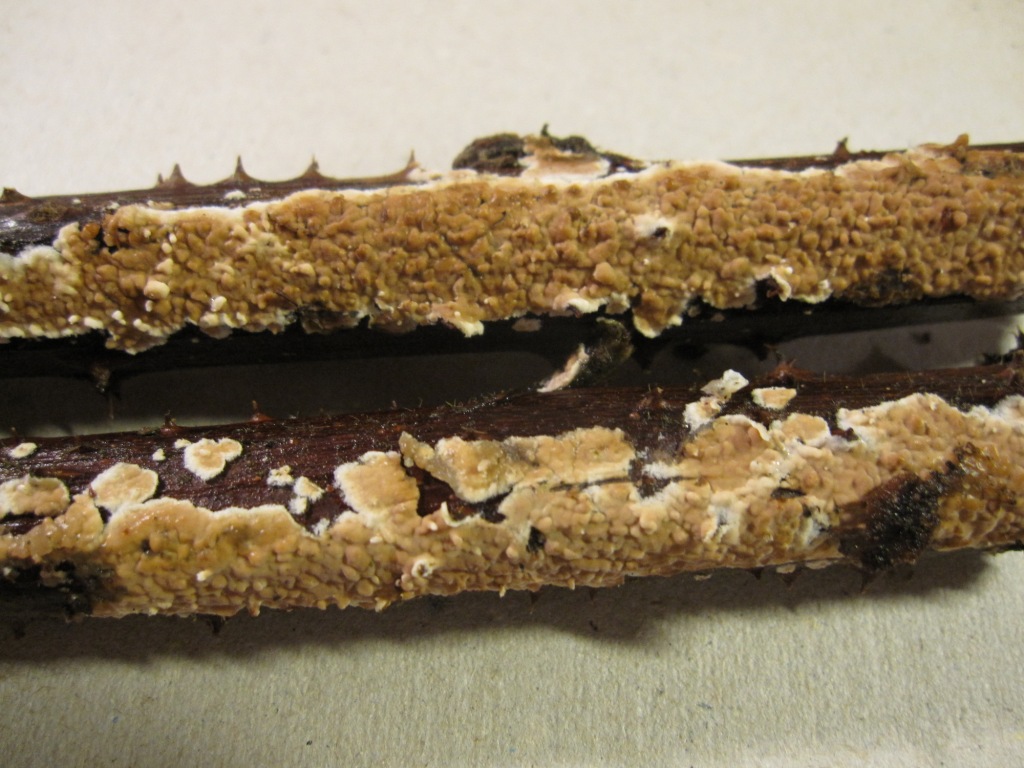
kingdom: Fungi
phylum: Basidiomycota
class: Agaricomycetes
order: Agaricales
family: Physalacriaceae
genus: Cylindrobasidium
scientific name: Cylindrobasidium evolvens
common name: sprækkehinde
